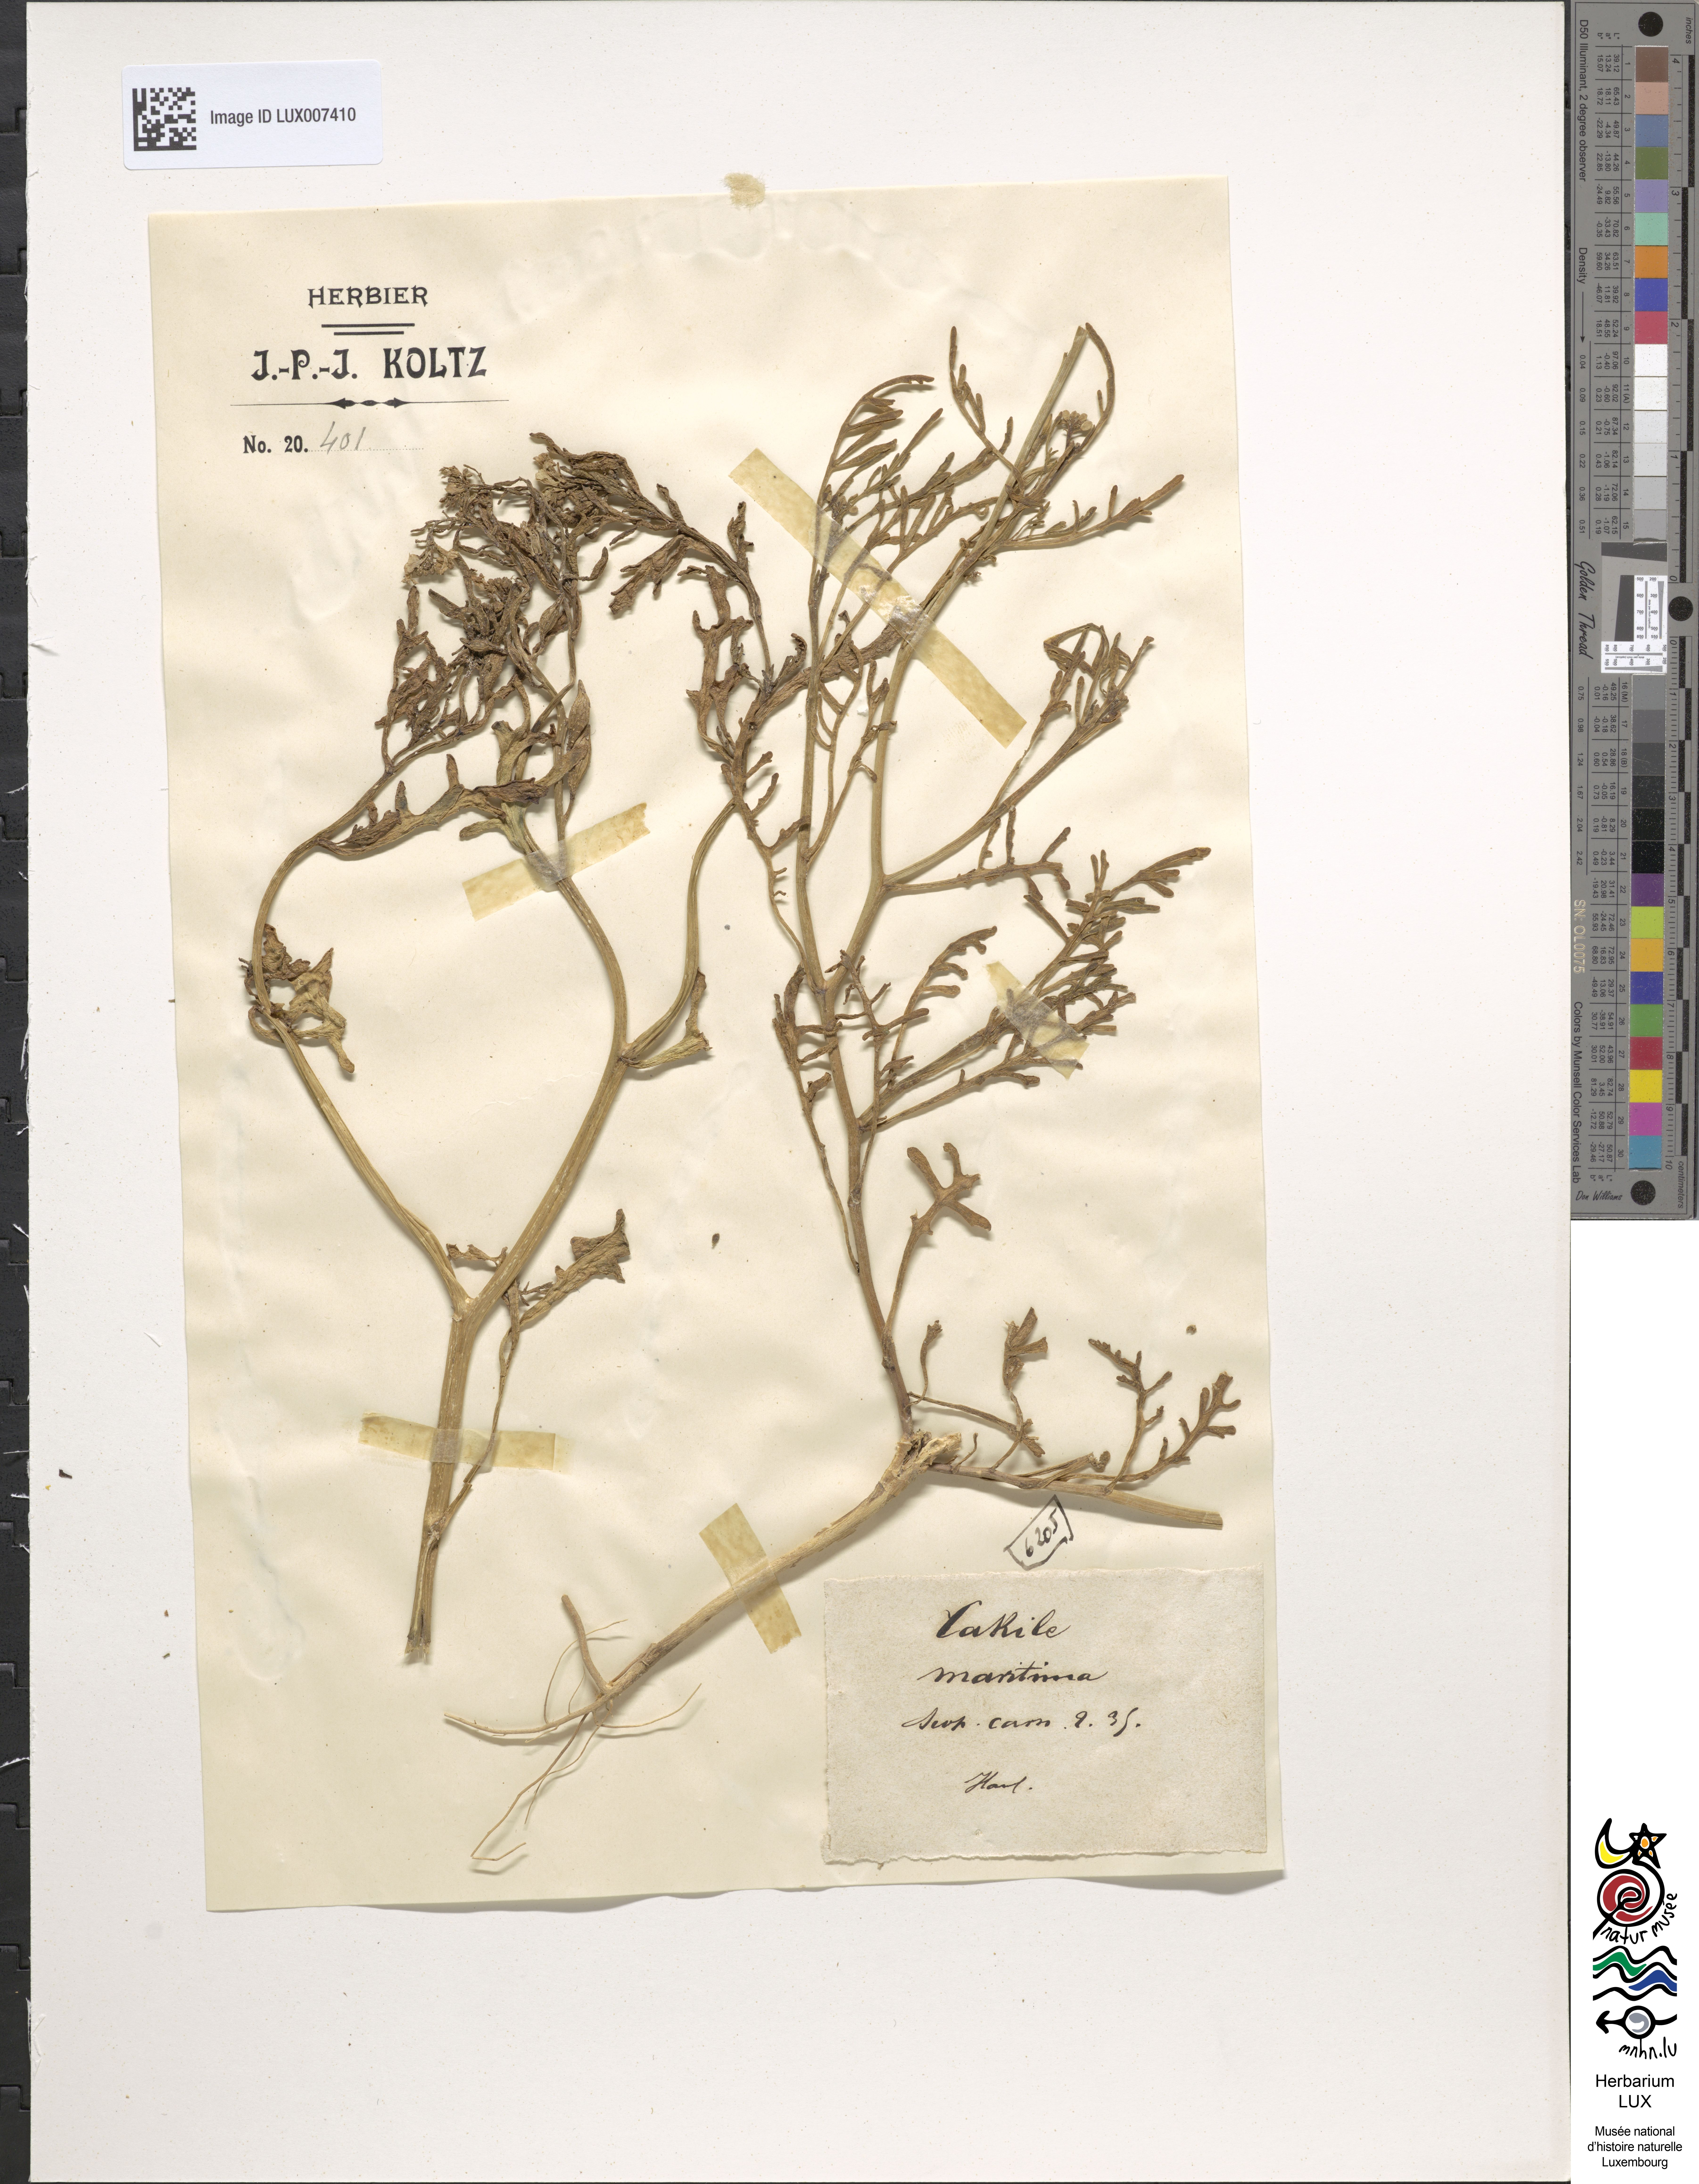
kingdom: Plantae
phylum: Tracheophyta
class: Magnoliopsida
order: Brassicales
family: Brassicaceae
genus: Cakile
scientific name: Cakile maritima
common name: Sea rocket
